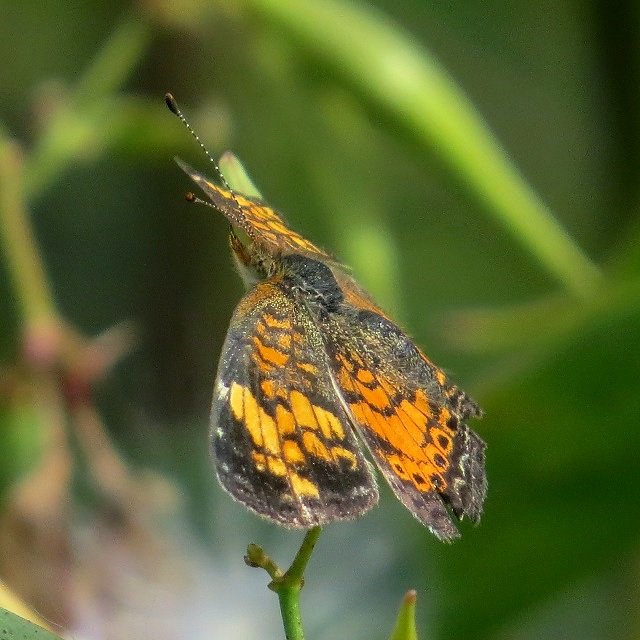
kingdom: Animalia
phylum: Arthropoda
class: Insecta
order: Lepidoptera
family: Nymphalidae
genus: Phyciodes
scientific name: Phyciodes tharos
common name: Pearl Crescent
